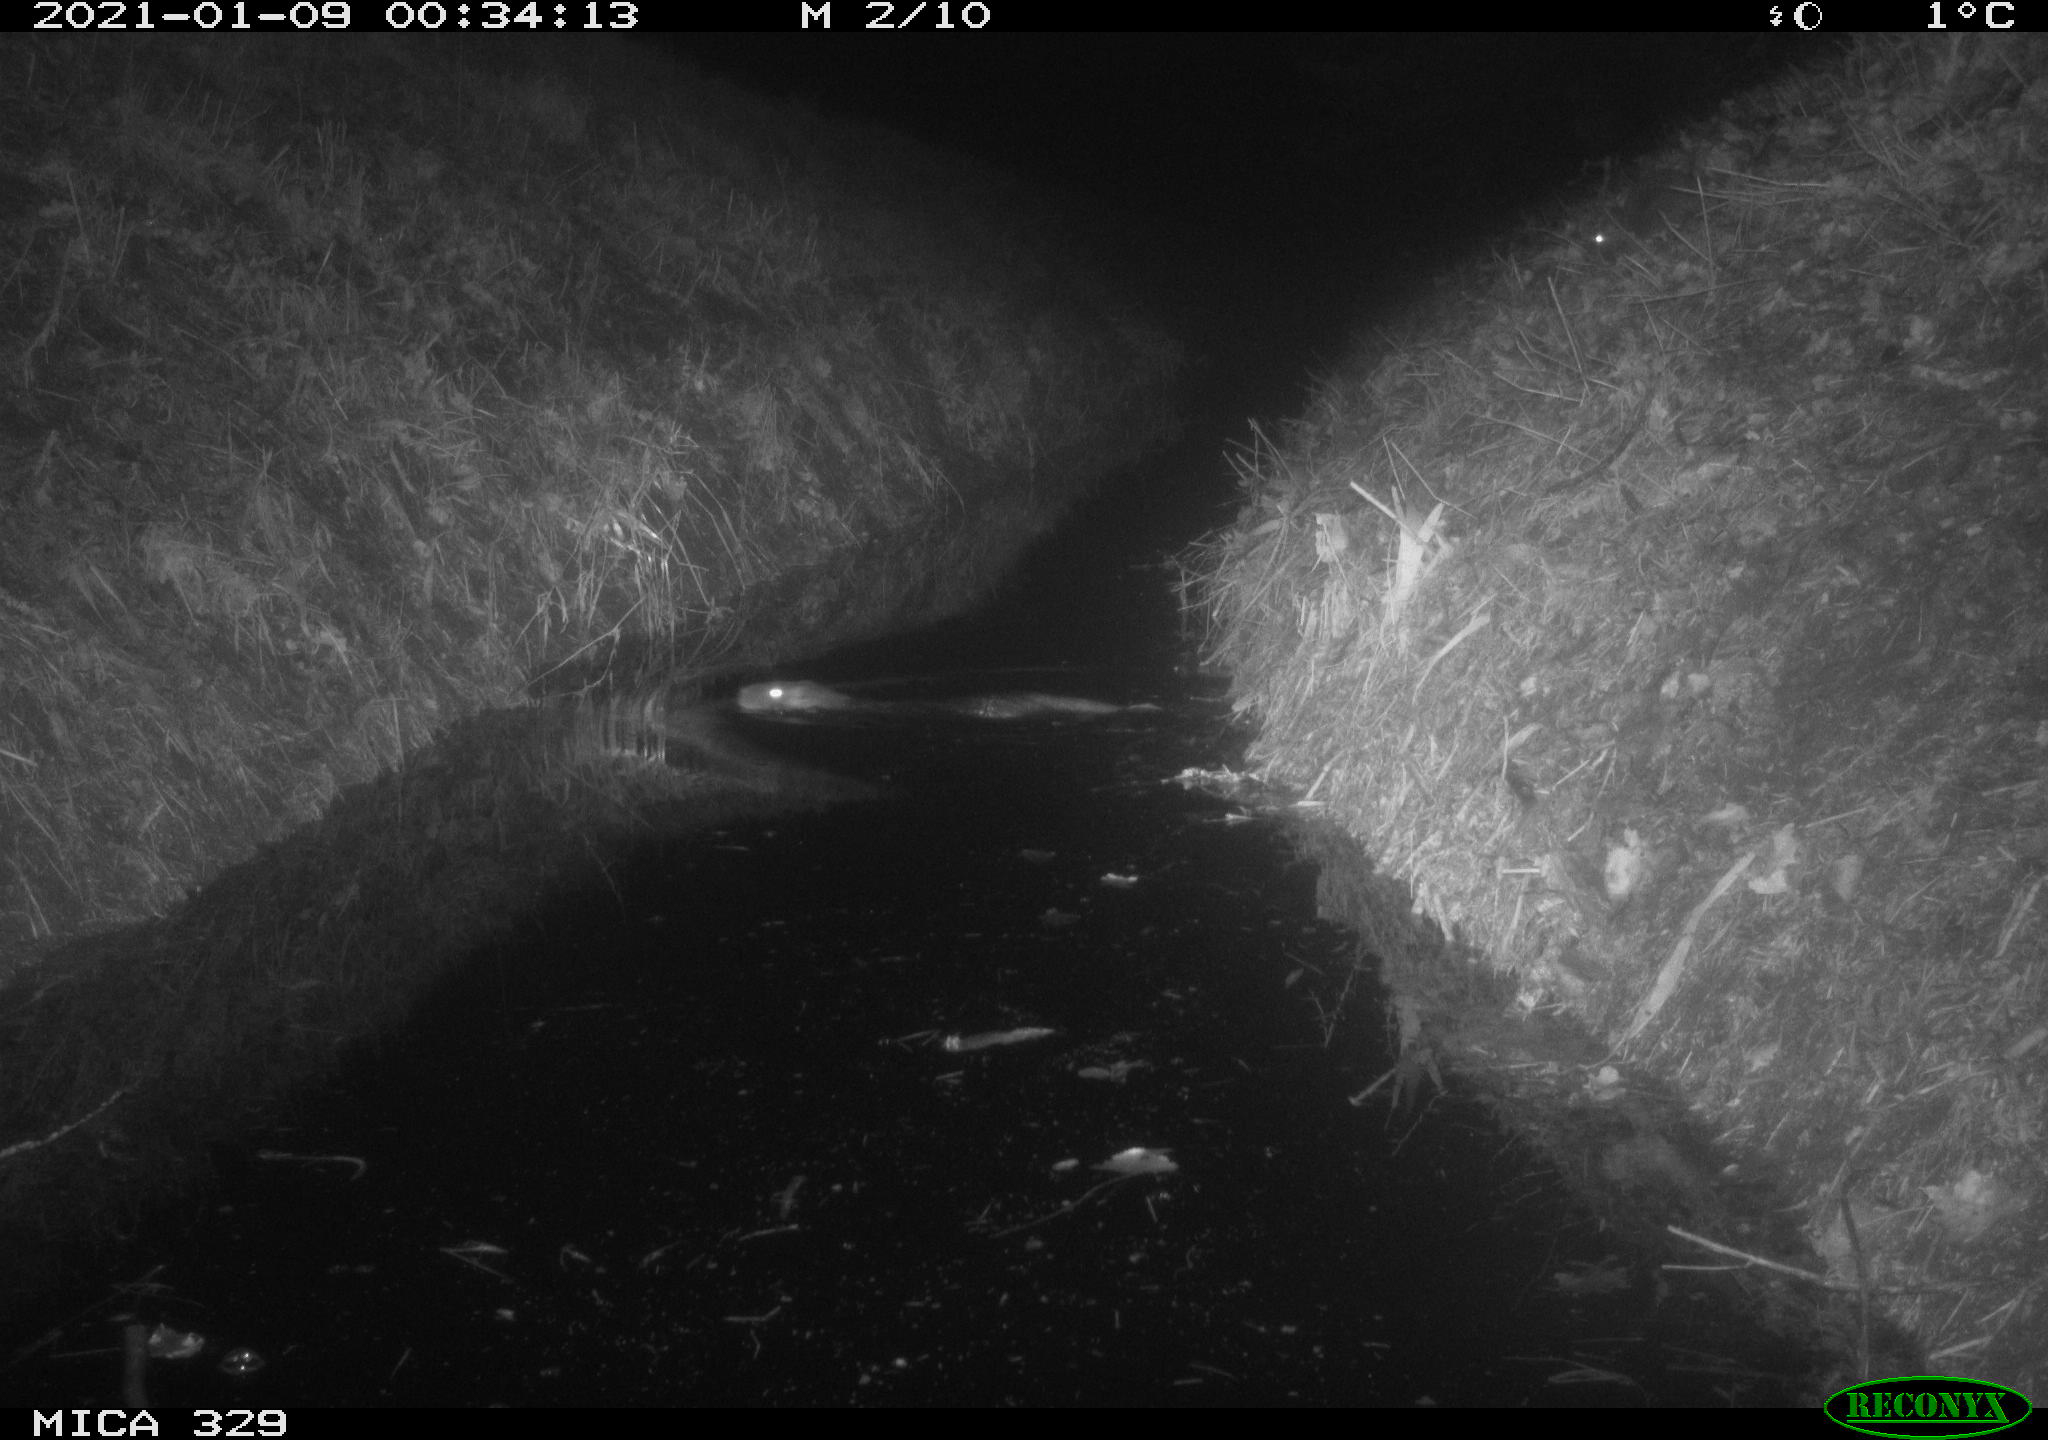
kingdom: Animalia
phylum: Chordata
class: Mammalia
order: Rodentia
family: Myocastoridae
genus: Myocastor
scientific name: Myocastor coypus
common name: Coypu
